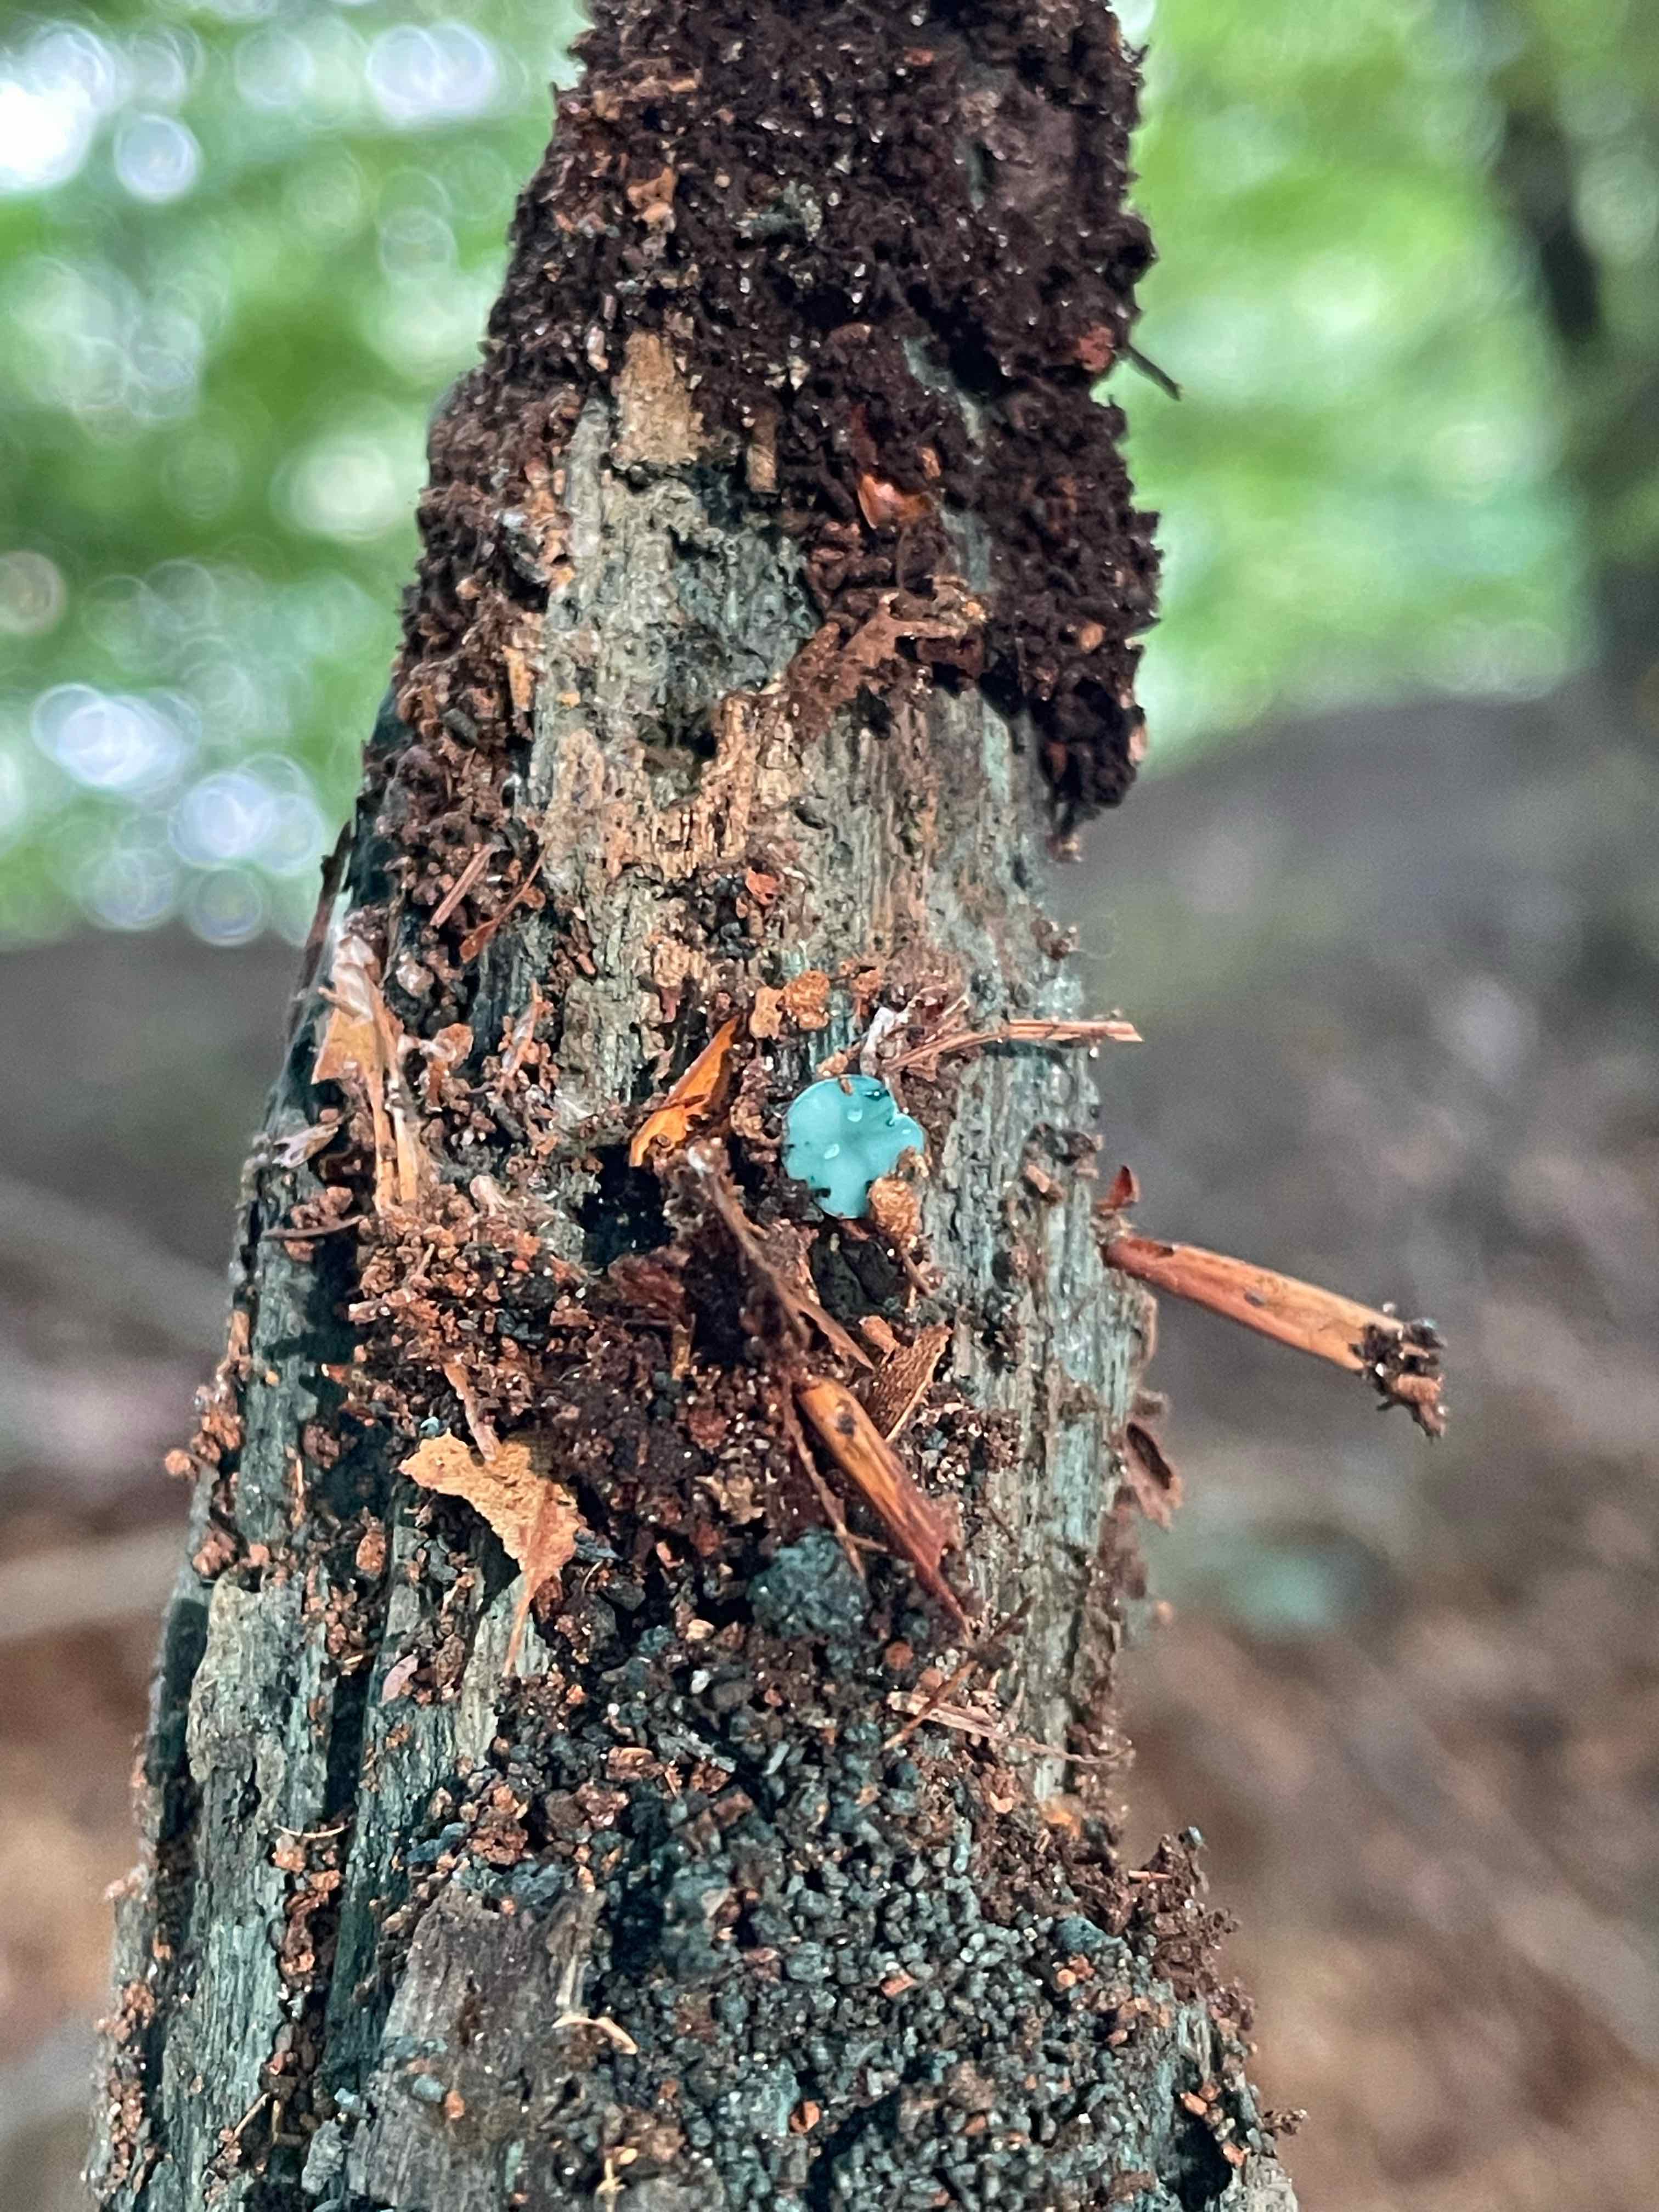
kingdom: Fungi
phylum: Ascomycota
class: Leotiomycetes
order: Helotiales
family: Chlorociboriaceae
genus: Chlorociboria
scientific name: Chlorociboria aeruginascens
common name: almindelig grønskive
